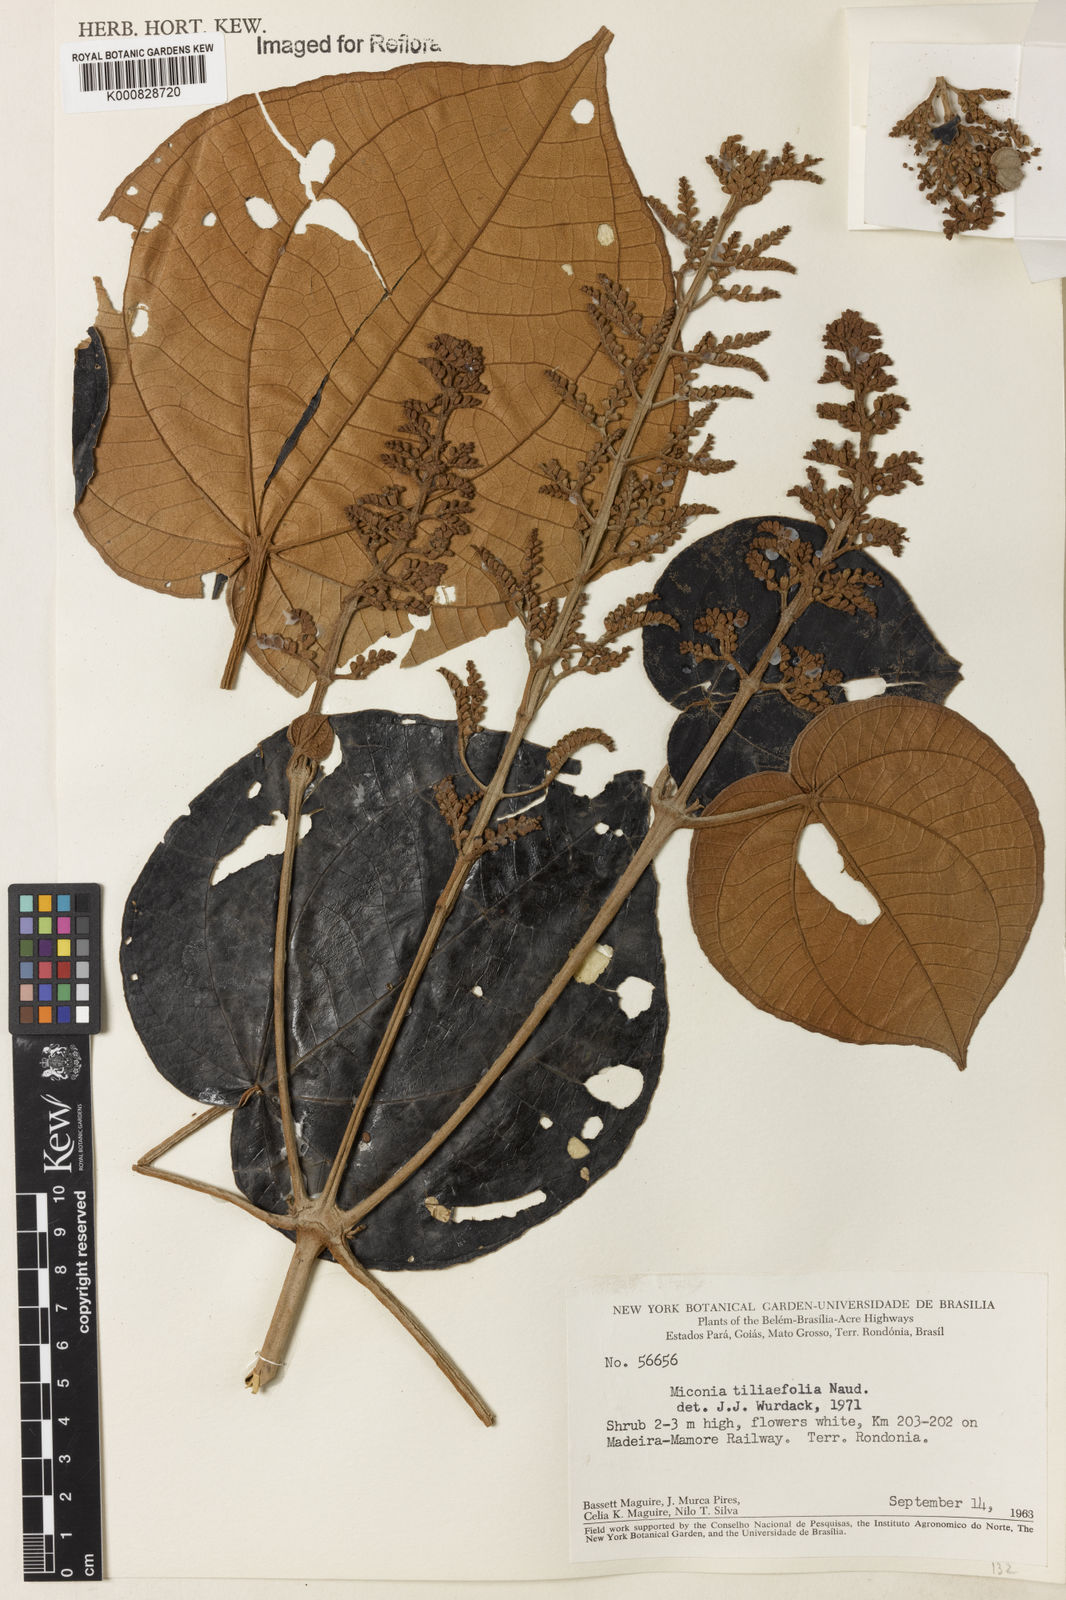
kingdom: Plantae
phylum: Tracheophyta
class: Magnoliopsida
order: Myrtales
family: Melastomataceae
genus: Miconia
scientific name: Miconia
